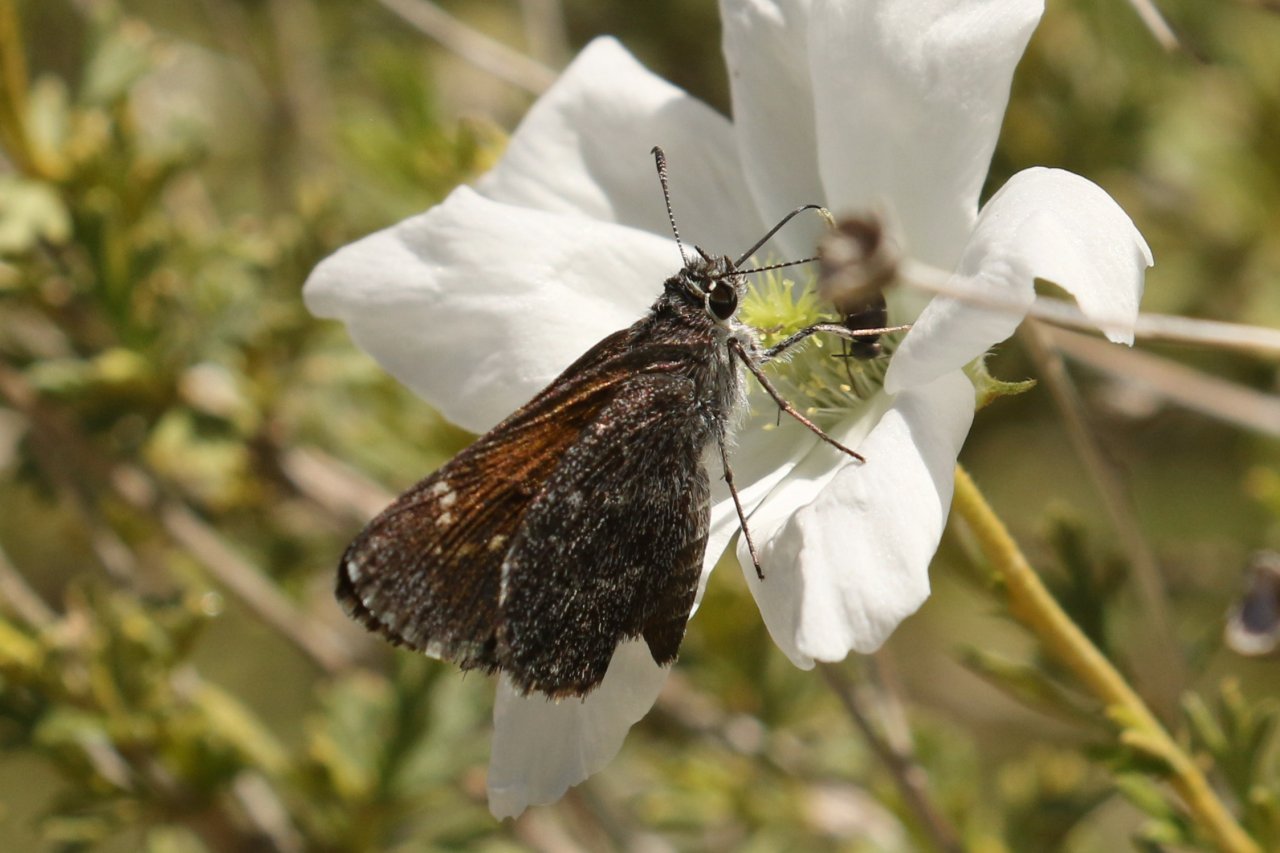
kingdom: Animalia
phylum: Arthropoda
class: Insecta
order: Lepidoptera
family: Hesperiidae
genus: Mastor
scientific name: Mastor cassus
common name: Cassus Roadside-Skipper
